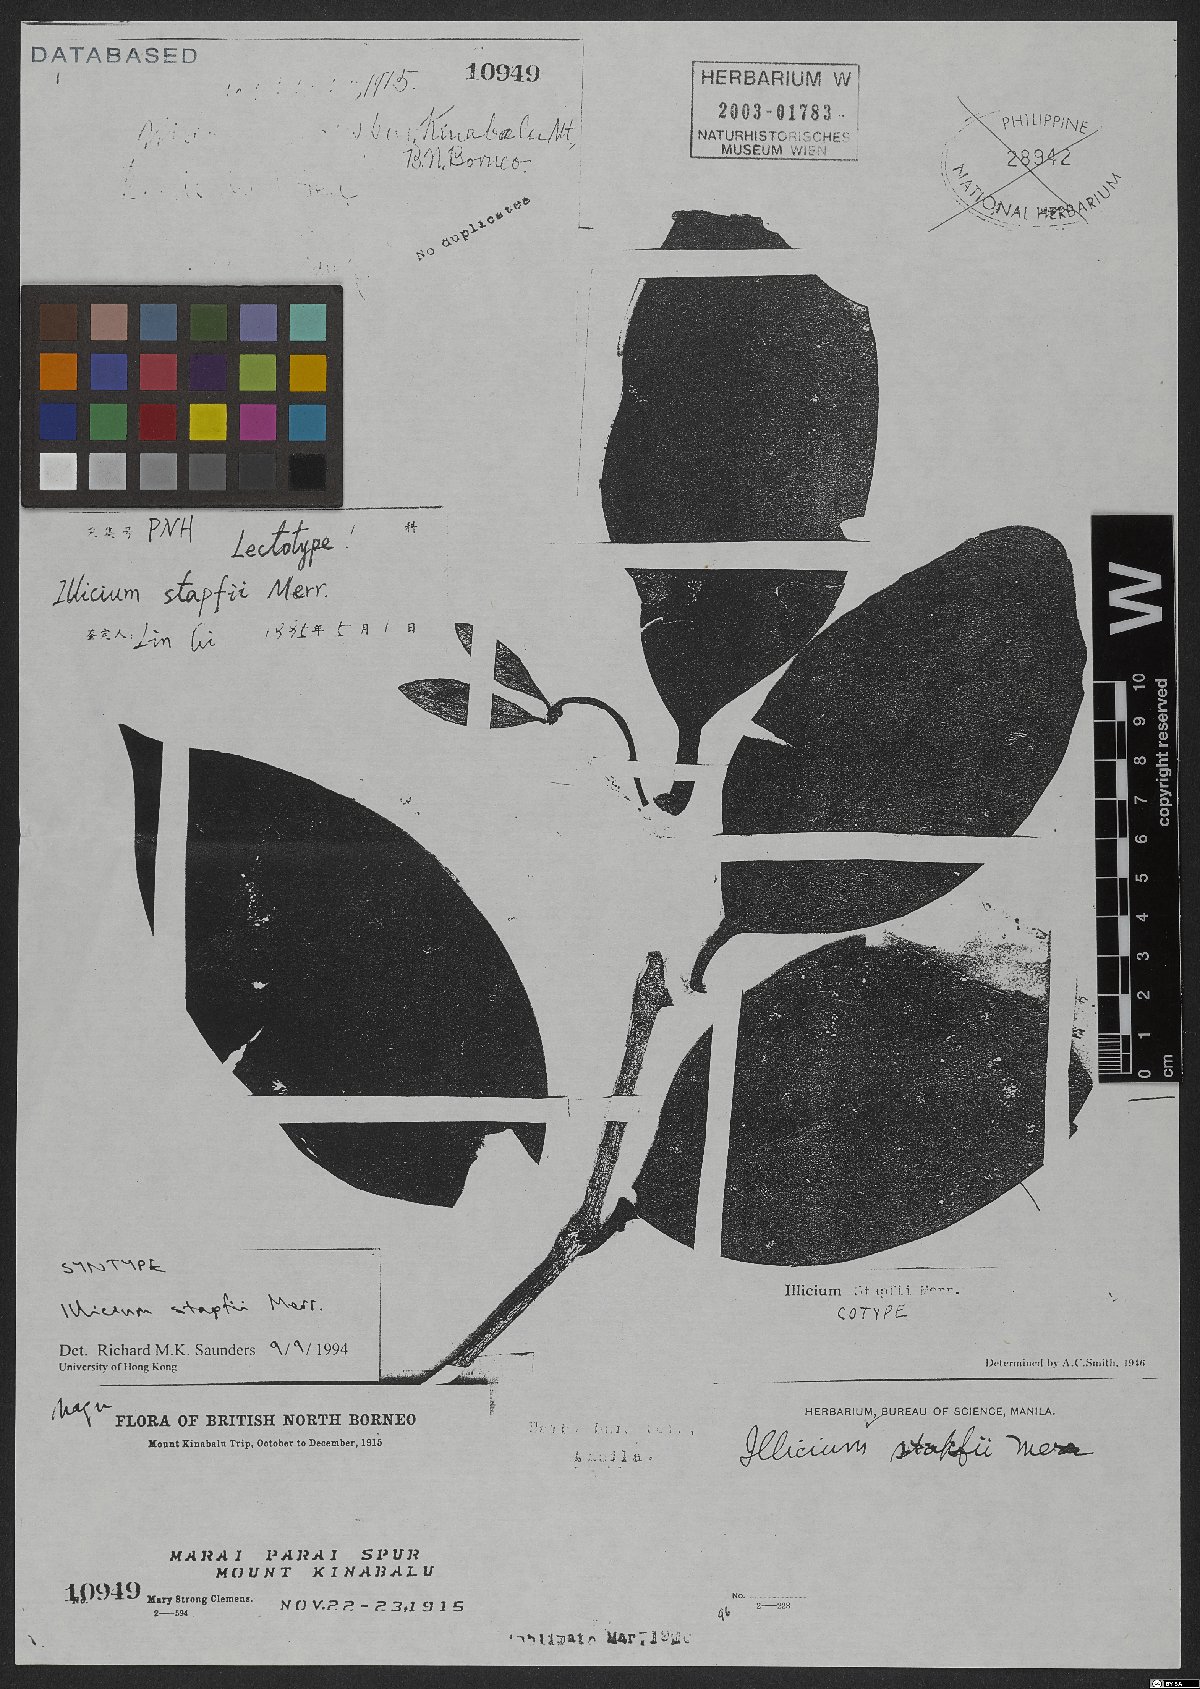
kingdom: Plantae
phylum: Tracheophyta
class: Magnoliopsida
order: Austrobaileyales
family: Schisandraceae
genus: Illicium
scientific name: Illicium stapfii
